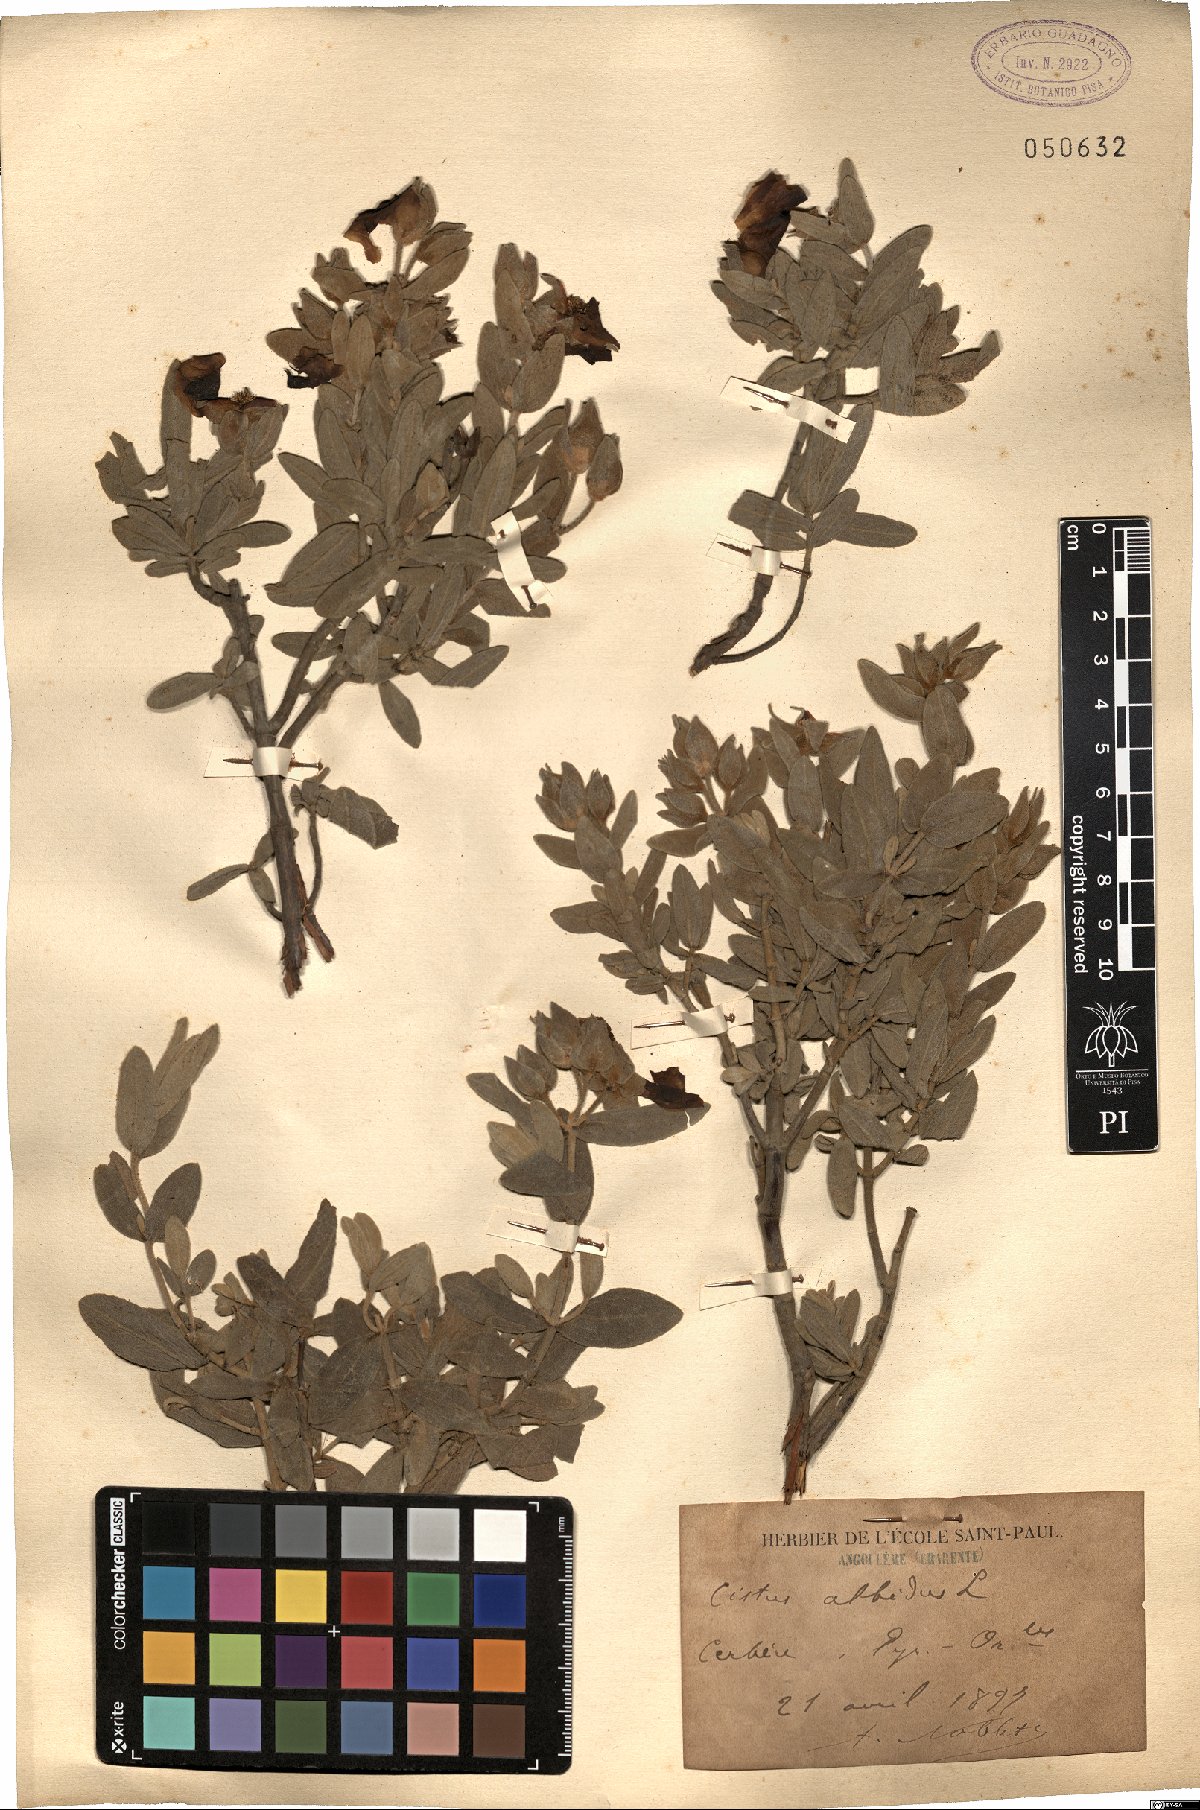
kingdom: Plantae
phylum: Tracheophyta
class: Magnoliopsida
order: Malvales
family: Cistaceae
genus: Cistus
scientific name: Cistus albidus
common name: White-leaf rock-rose
